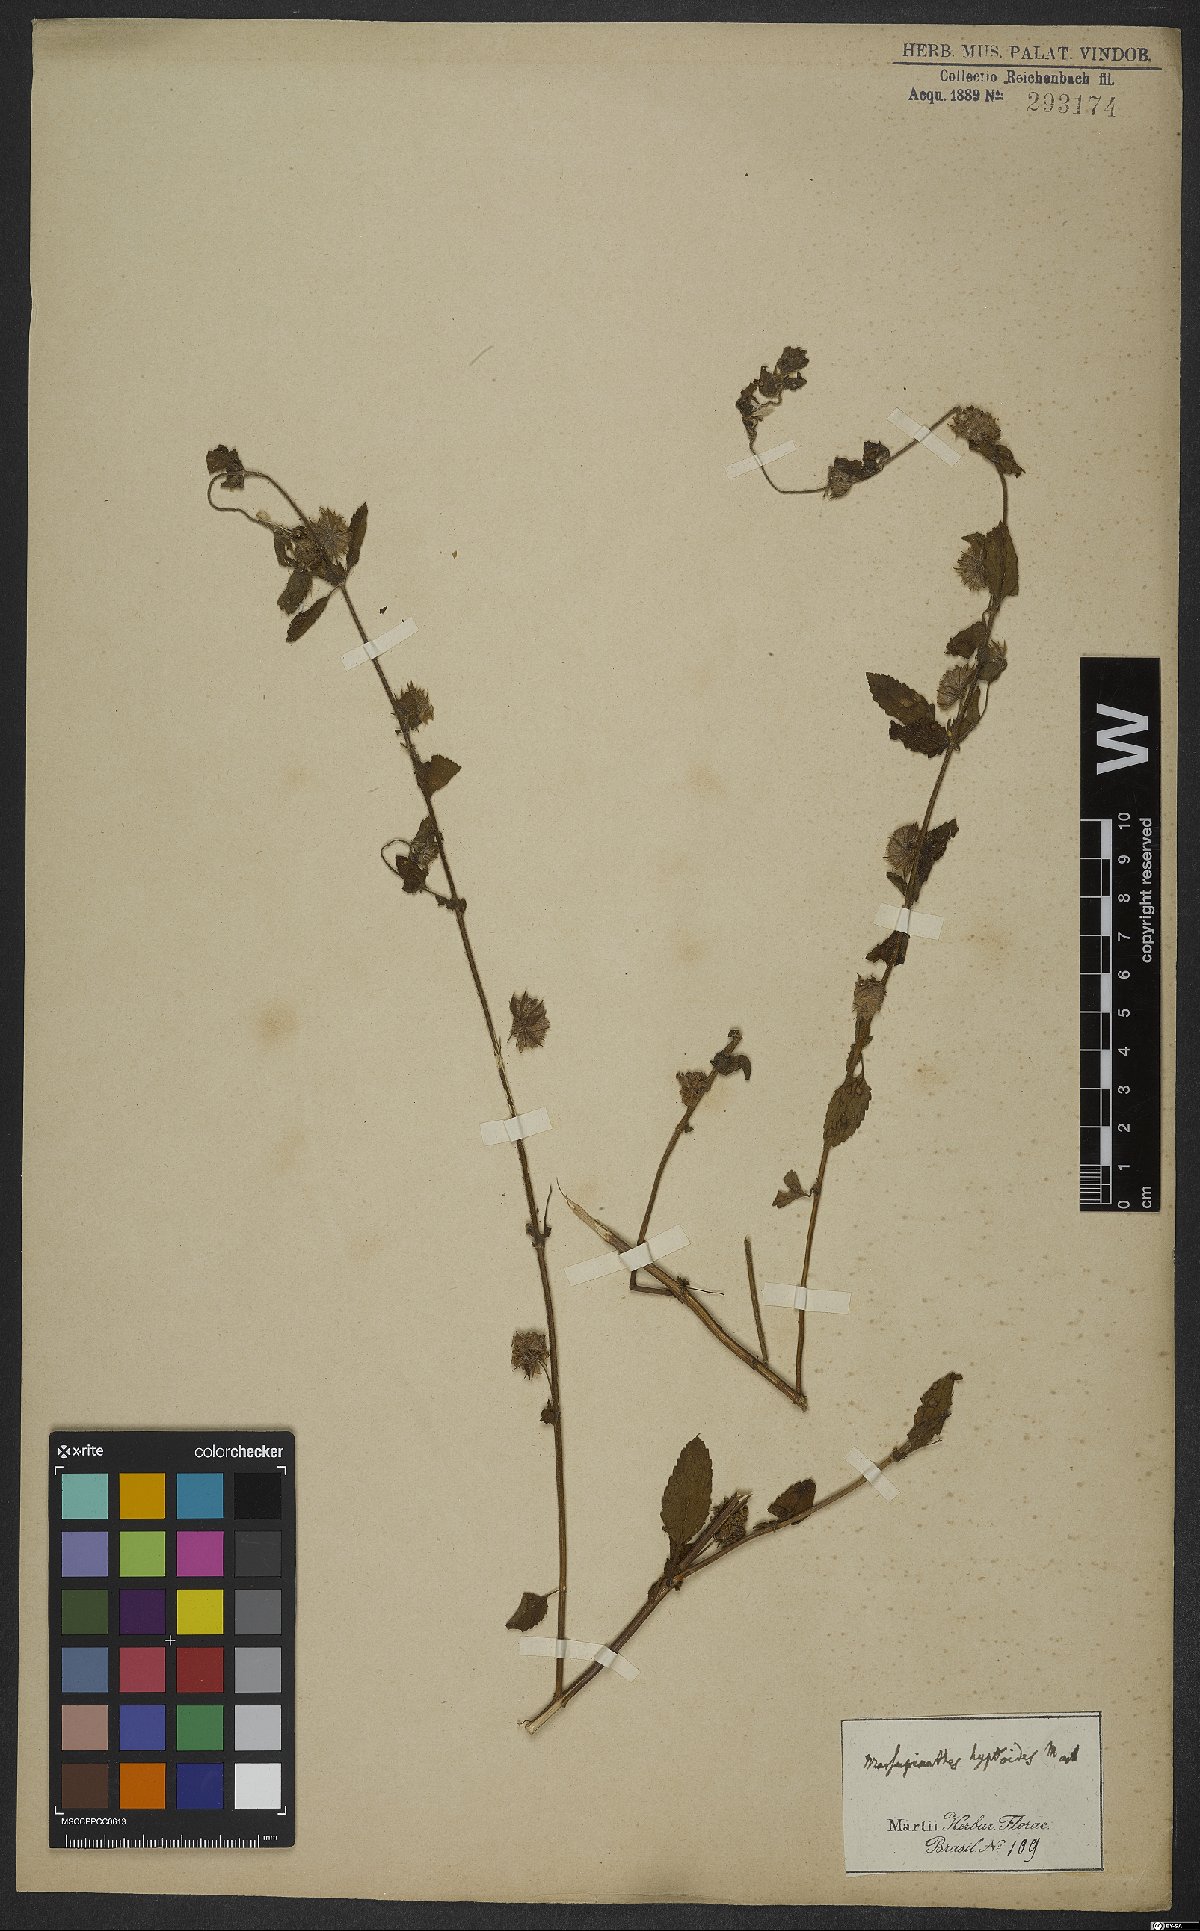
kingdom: Plantae
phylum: Tracheophyta
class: Magnoliopsida
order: Lamiales
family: Lamiaceae
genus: Marsypianthes
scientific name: Marsypianthes chamaedrys
